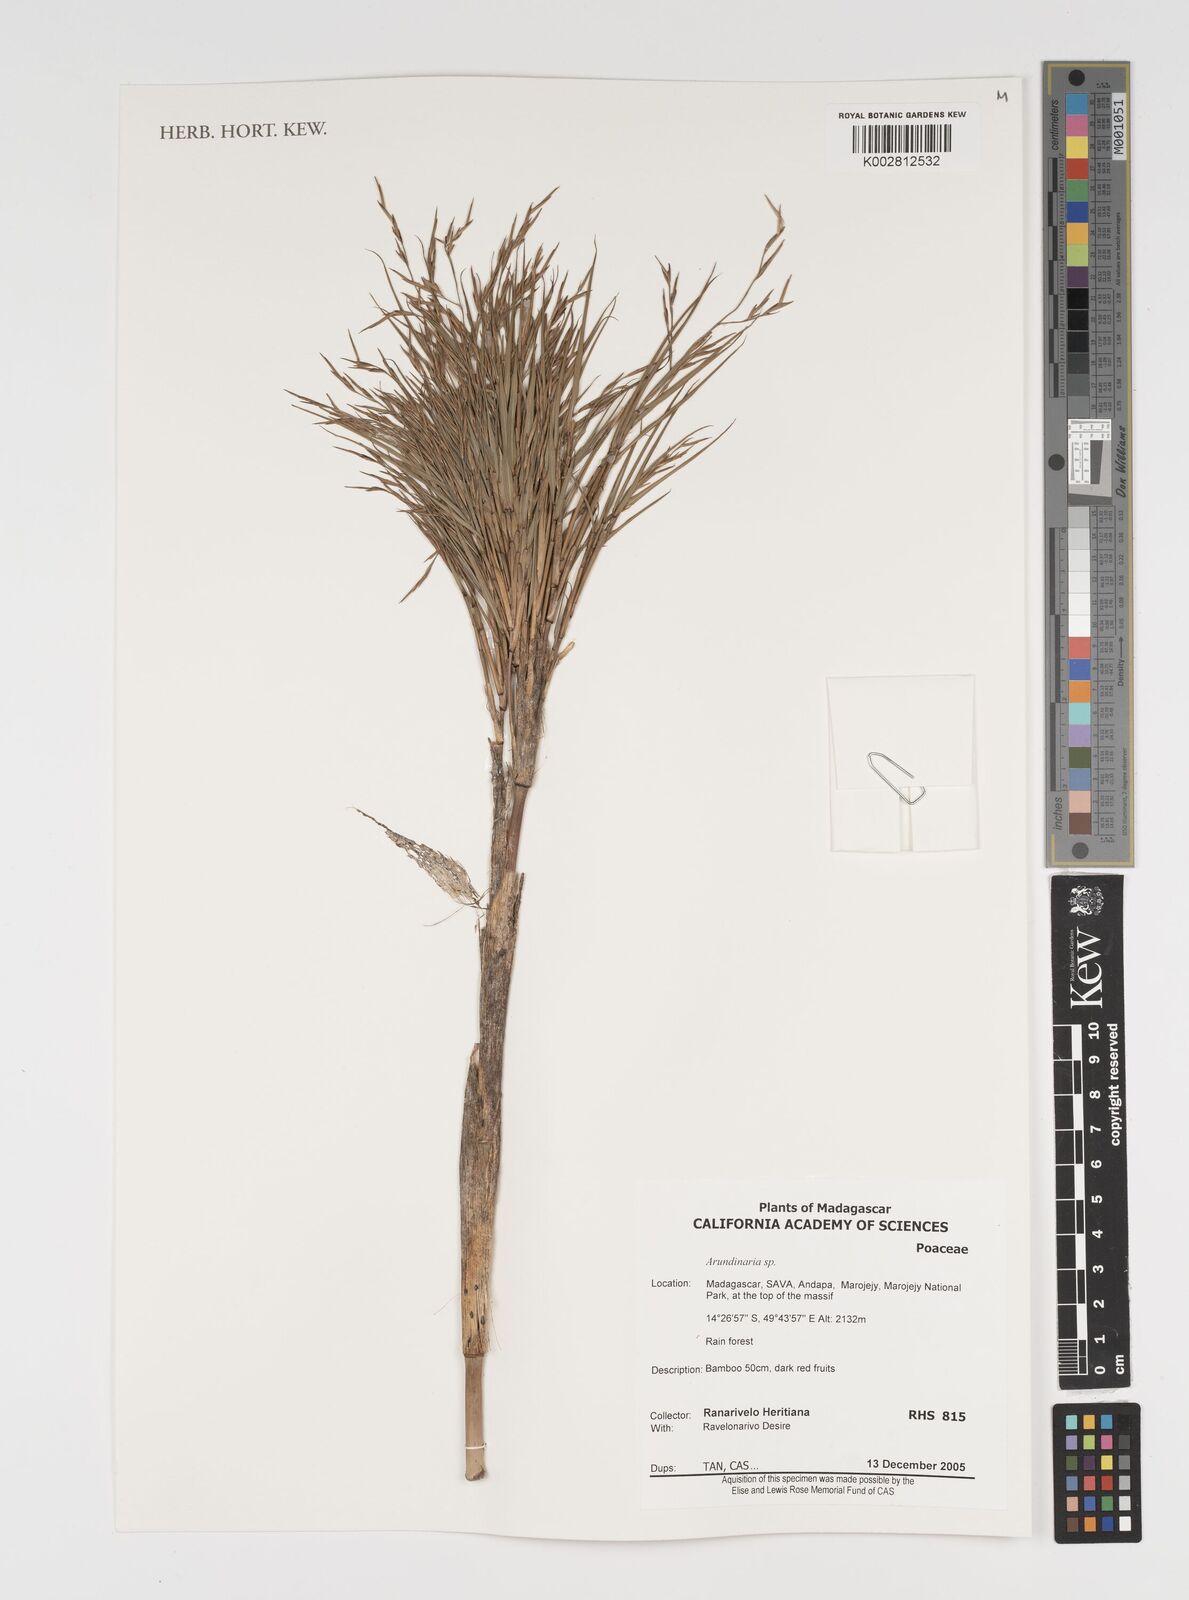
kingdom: Plantae
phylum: Tracheophyta
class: Liliopsida
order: Poales
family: Poaceae
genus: Arundinaria
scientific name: Arundinaria
